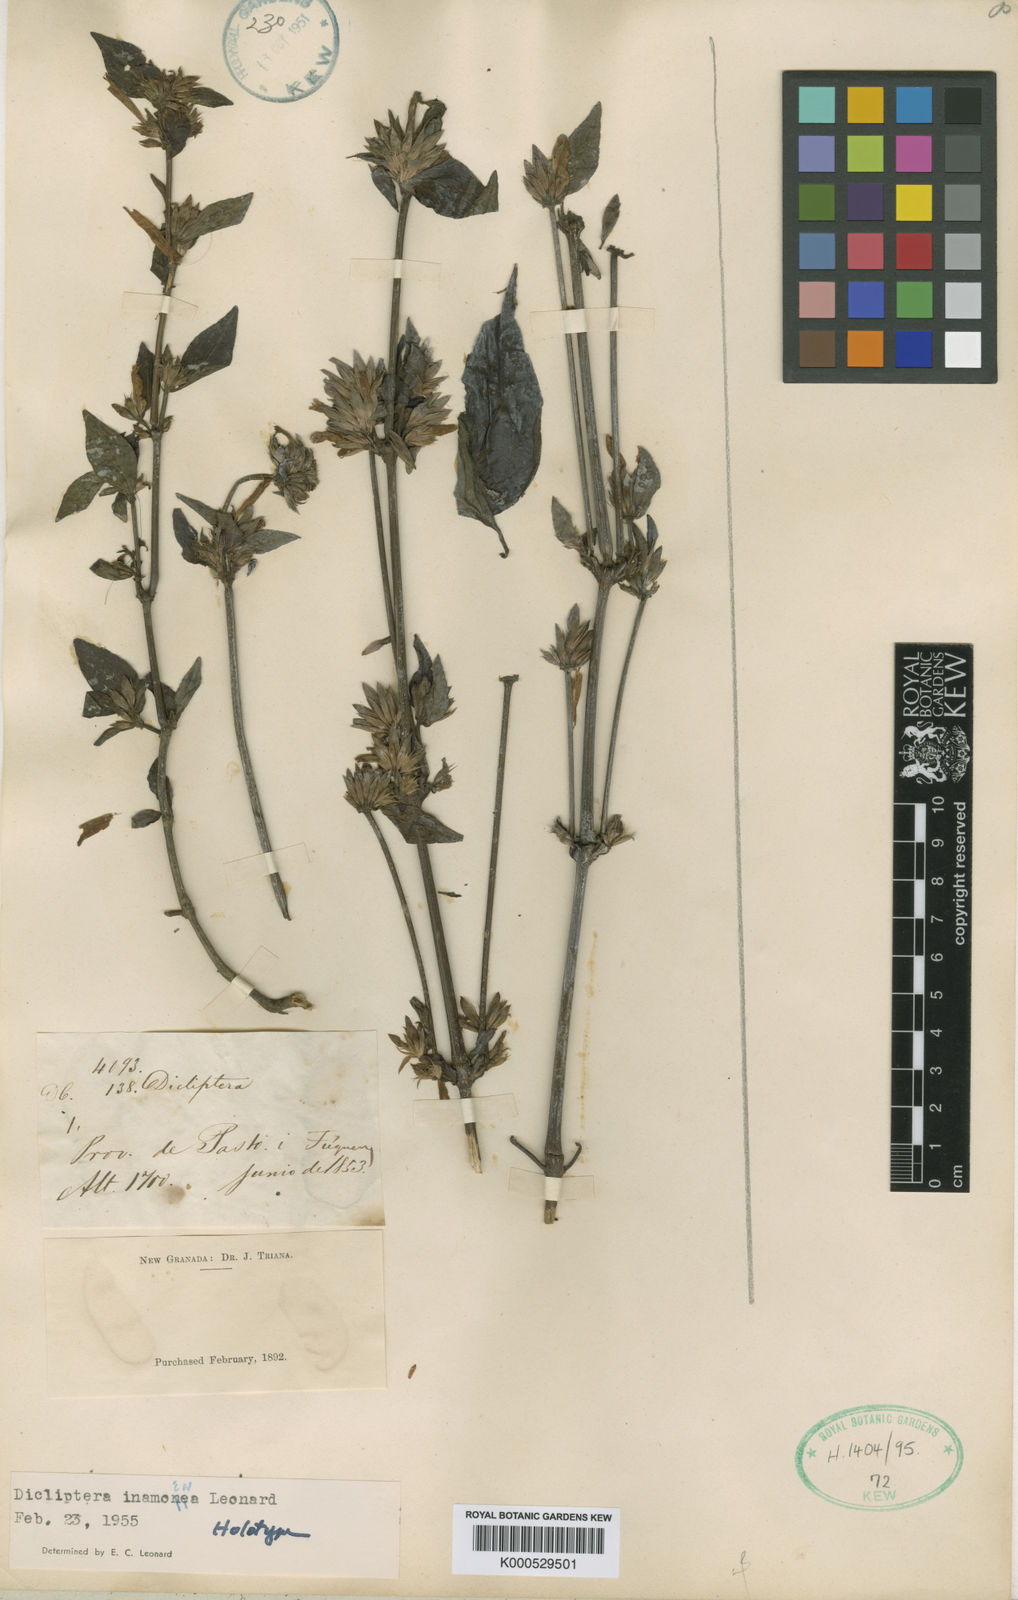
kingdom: Plantae
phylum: Tracheophyta
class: Magnoliopsida
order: Lamiales
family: Acanthaceae
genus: Dicliptera
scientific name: Dicliptera scandens
